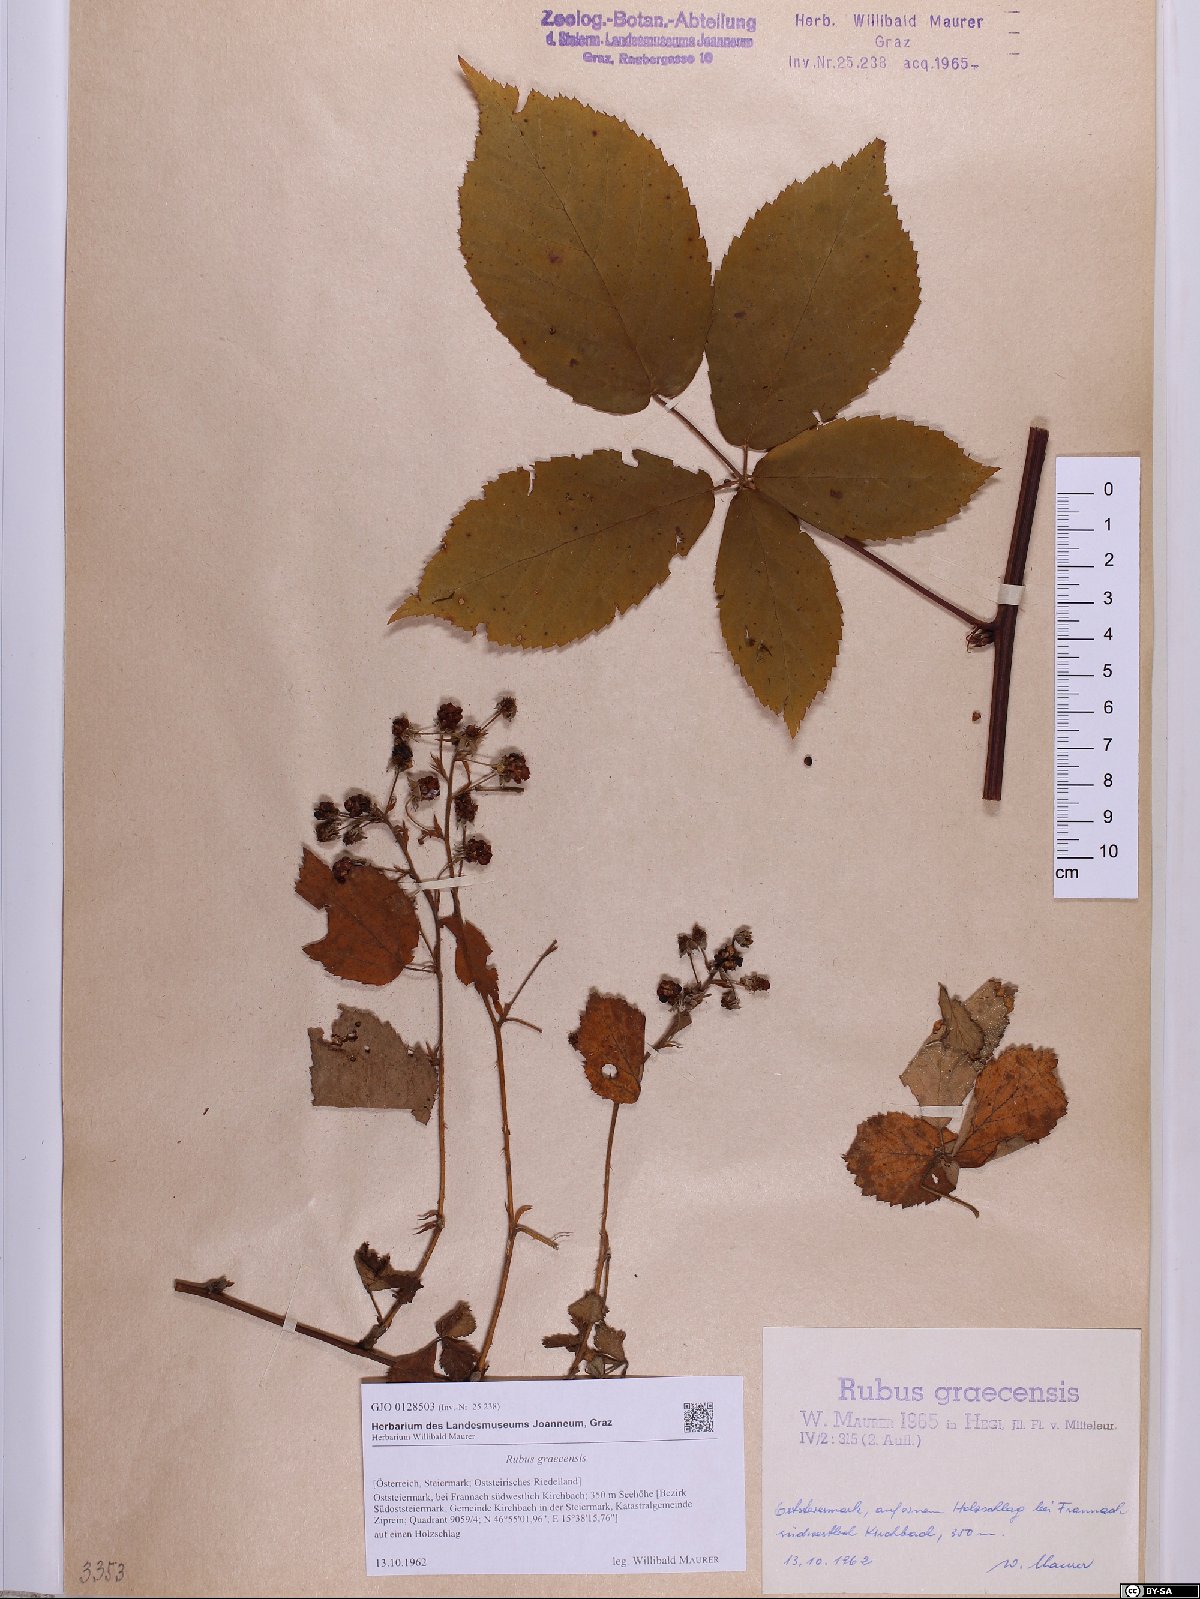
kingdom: Plantae
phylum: Tracheophyta
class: Magnoliopsida
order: Rosales
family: Rosaceae
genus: Rubus
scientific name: Rubus graecensis
